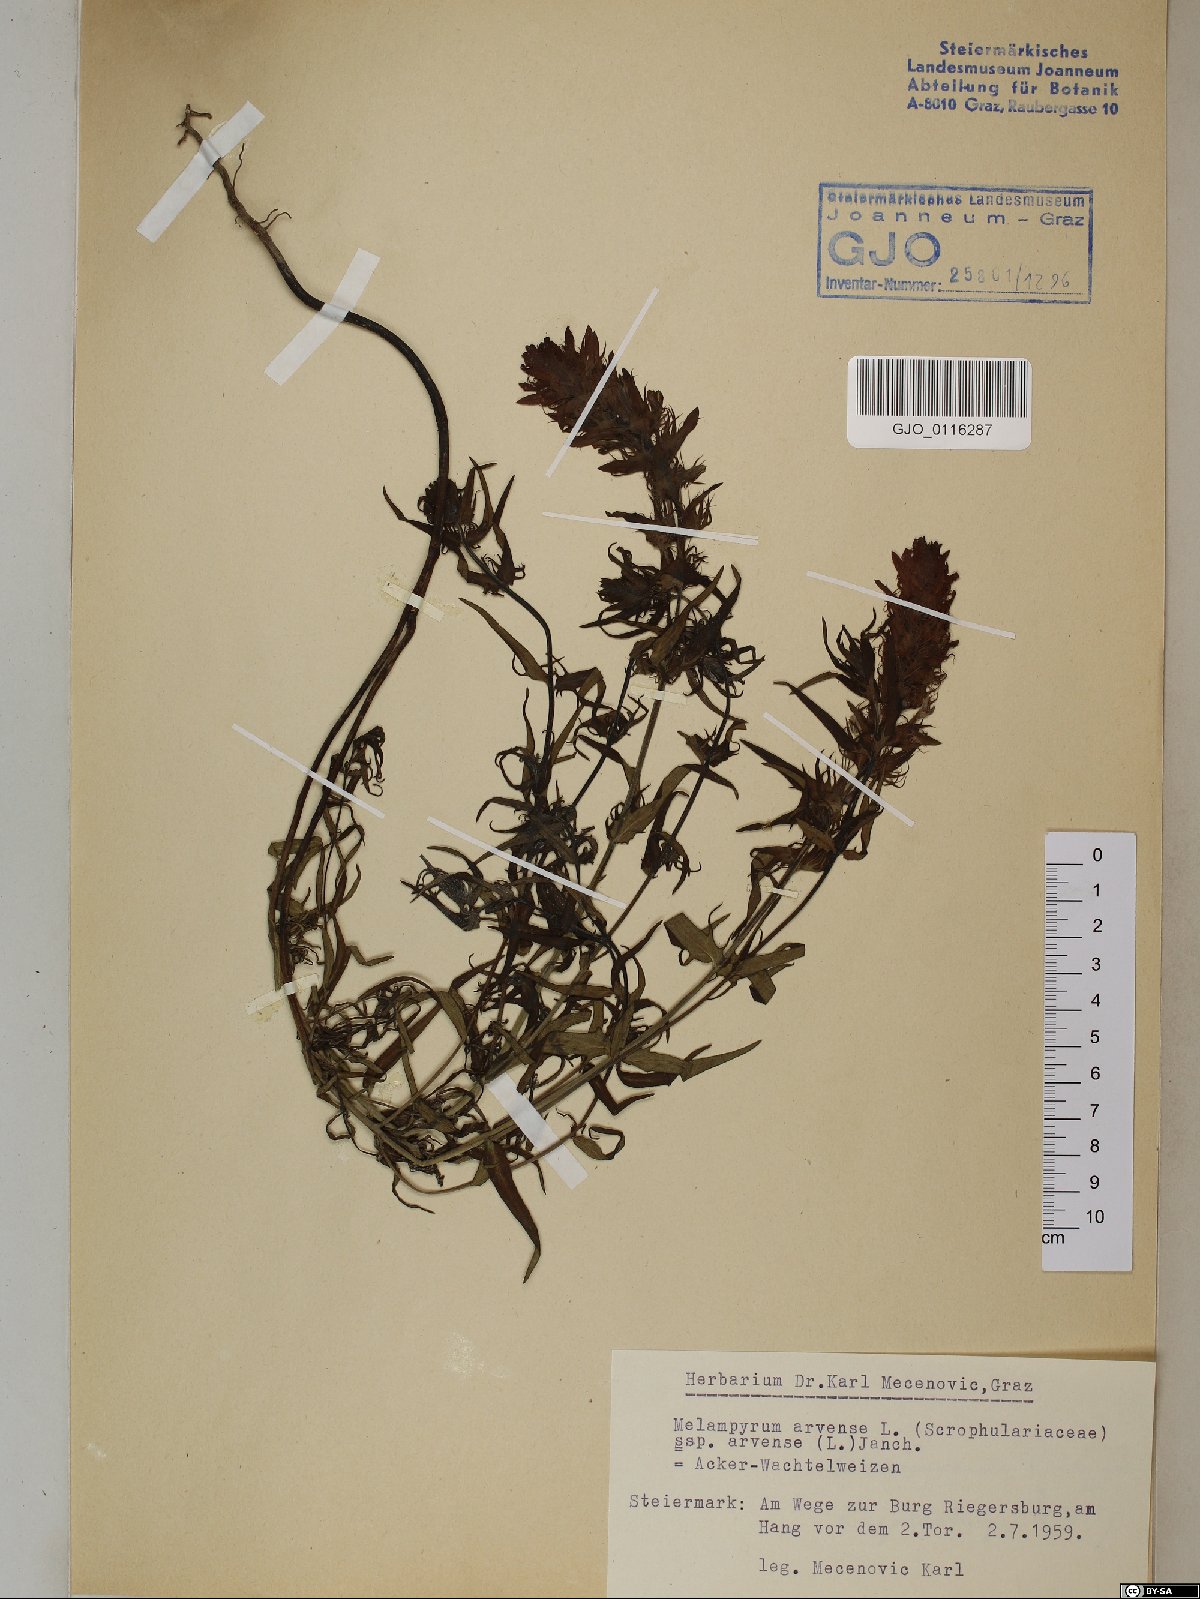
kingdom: Plantae
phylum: Tracheophyta
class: Magnoliopsida
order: Lamiales
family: Orobanchaceae
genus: Melampyrum
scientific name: Melampyrum arvense
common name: Field cow-wheat
